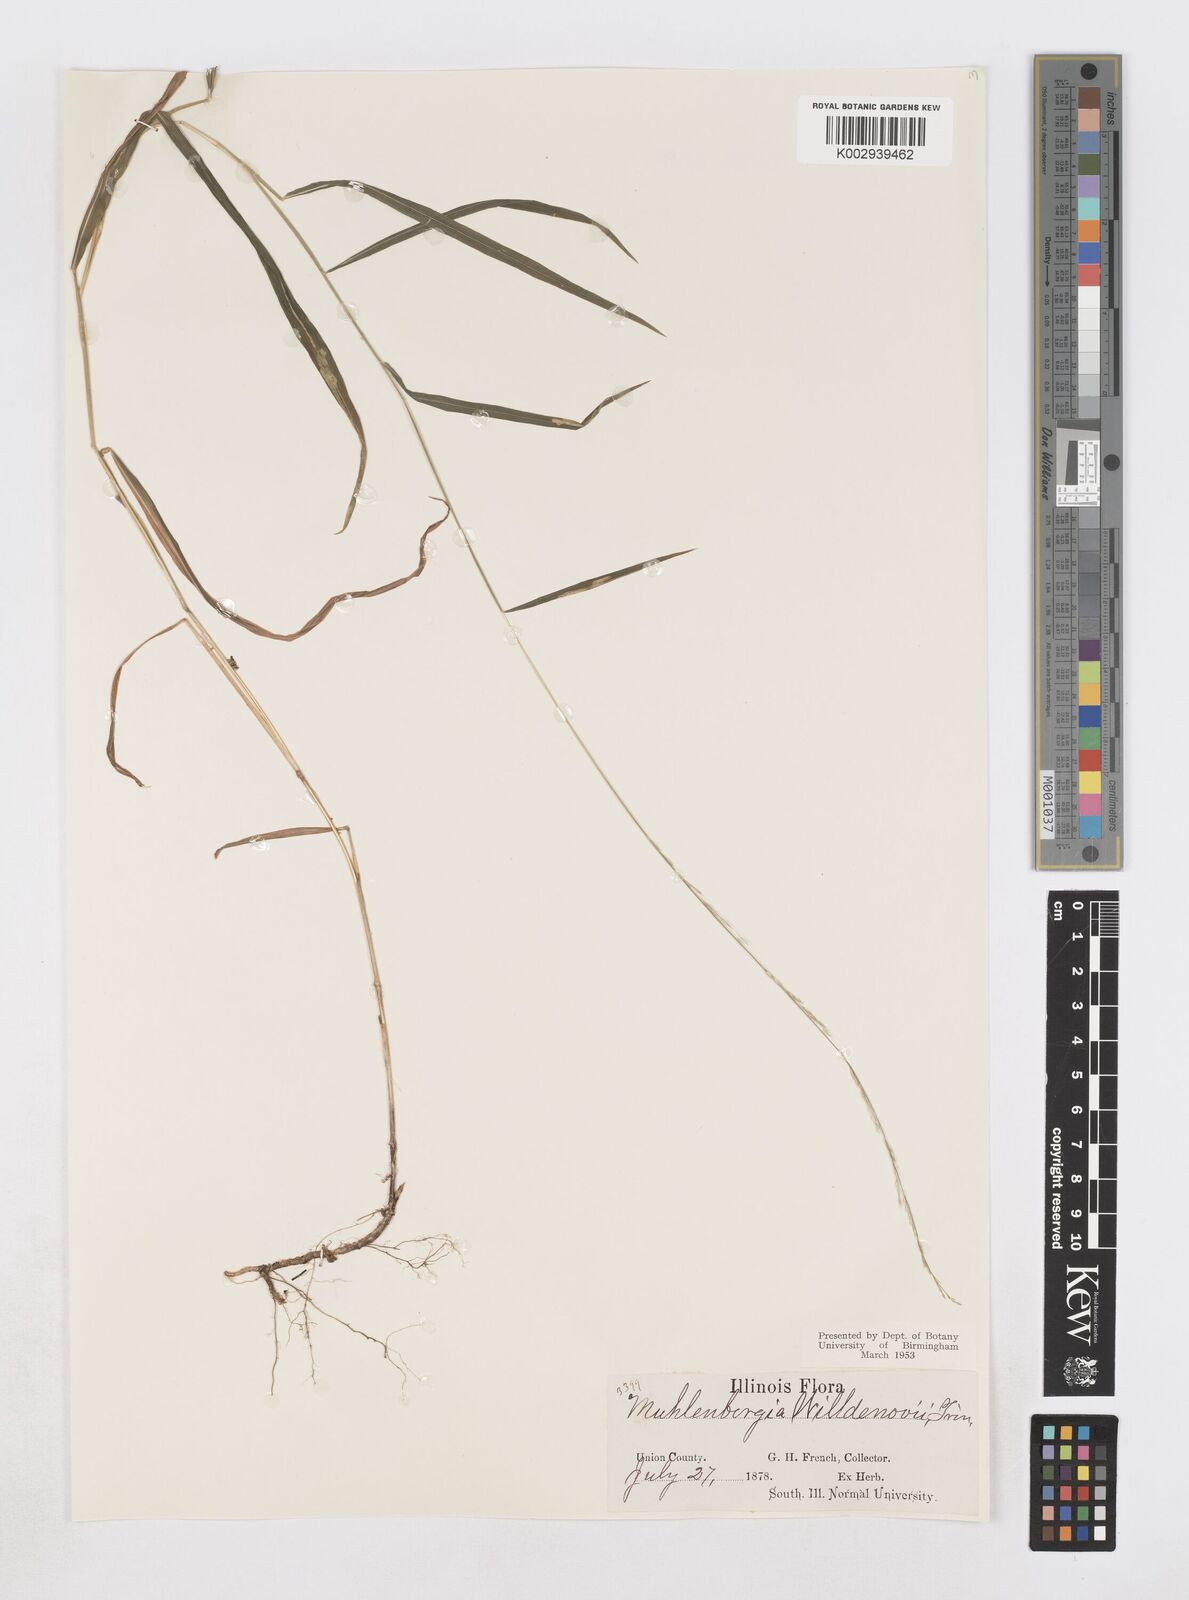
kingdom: Plantae
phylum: Tracheophyta
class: Liliopsida
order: Poales
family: Poaceae
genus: Muhlenbergia
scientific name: Muhlenbergia tenuiflora
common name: Slender muhly
